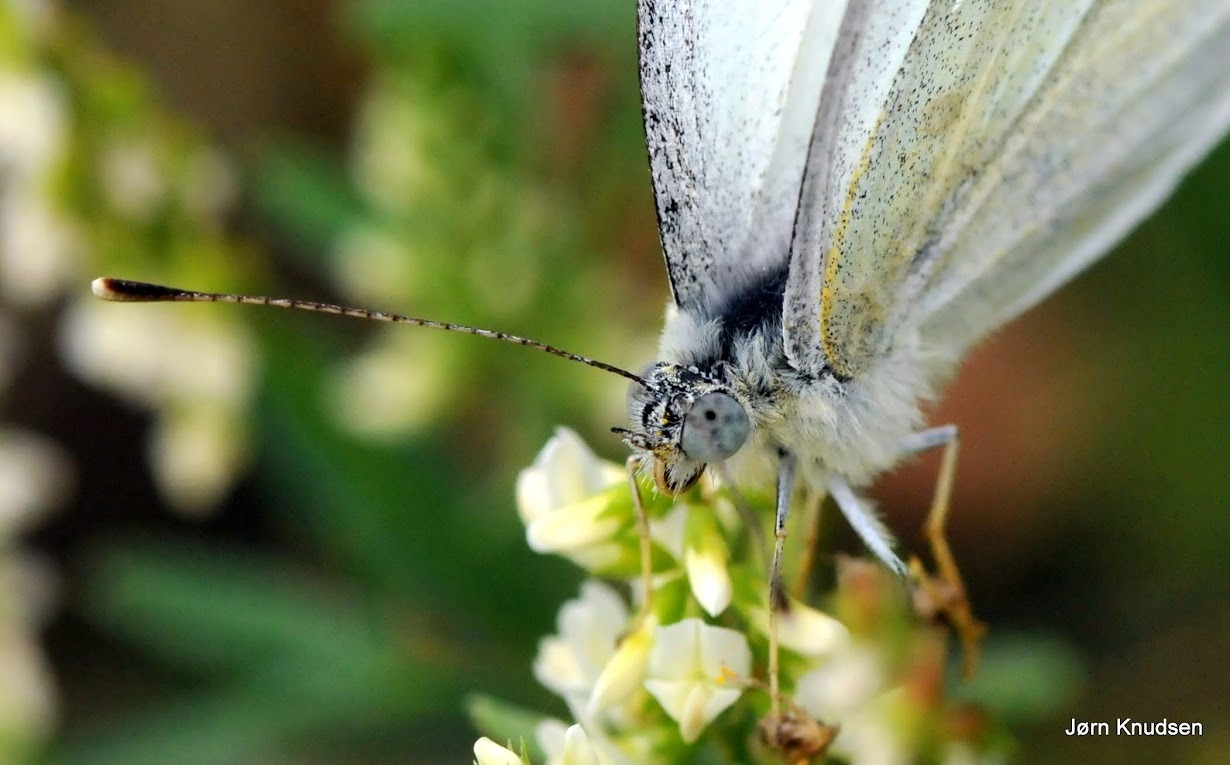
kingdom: Animalia
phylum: Arthropoda
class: Insecta
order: Lepidoptera
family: Pieridae
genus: Pieris
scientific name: Pieris rapae
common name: Lille kålsommerfugl
